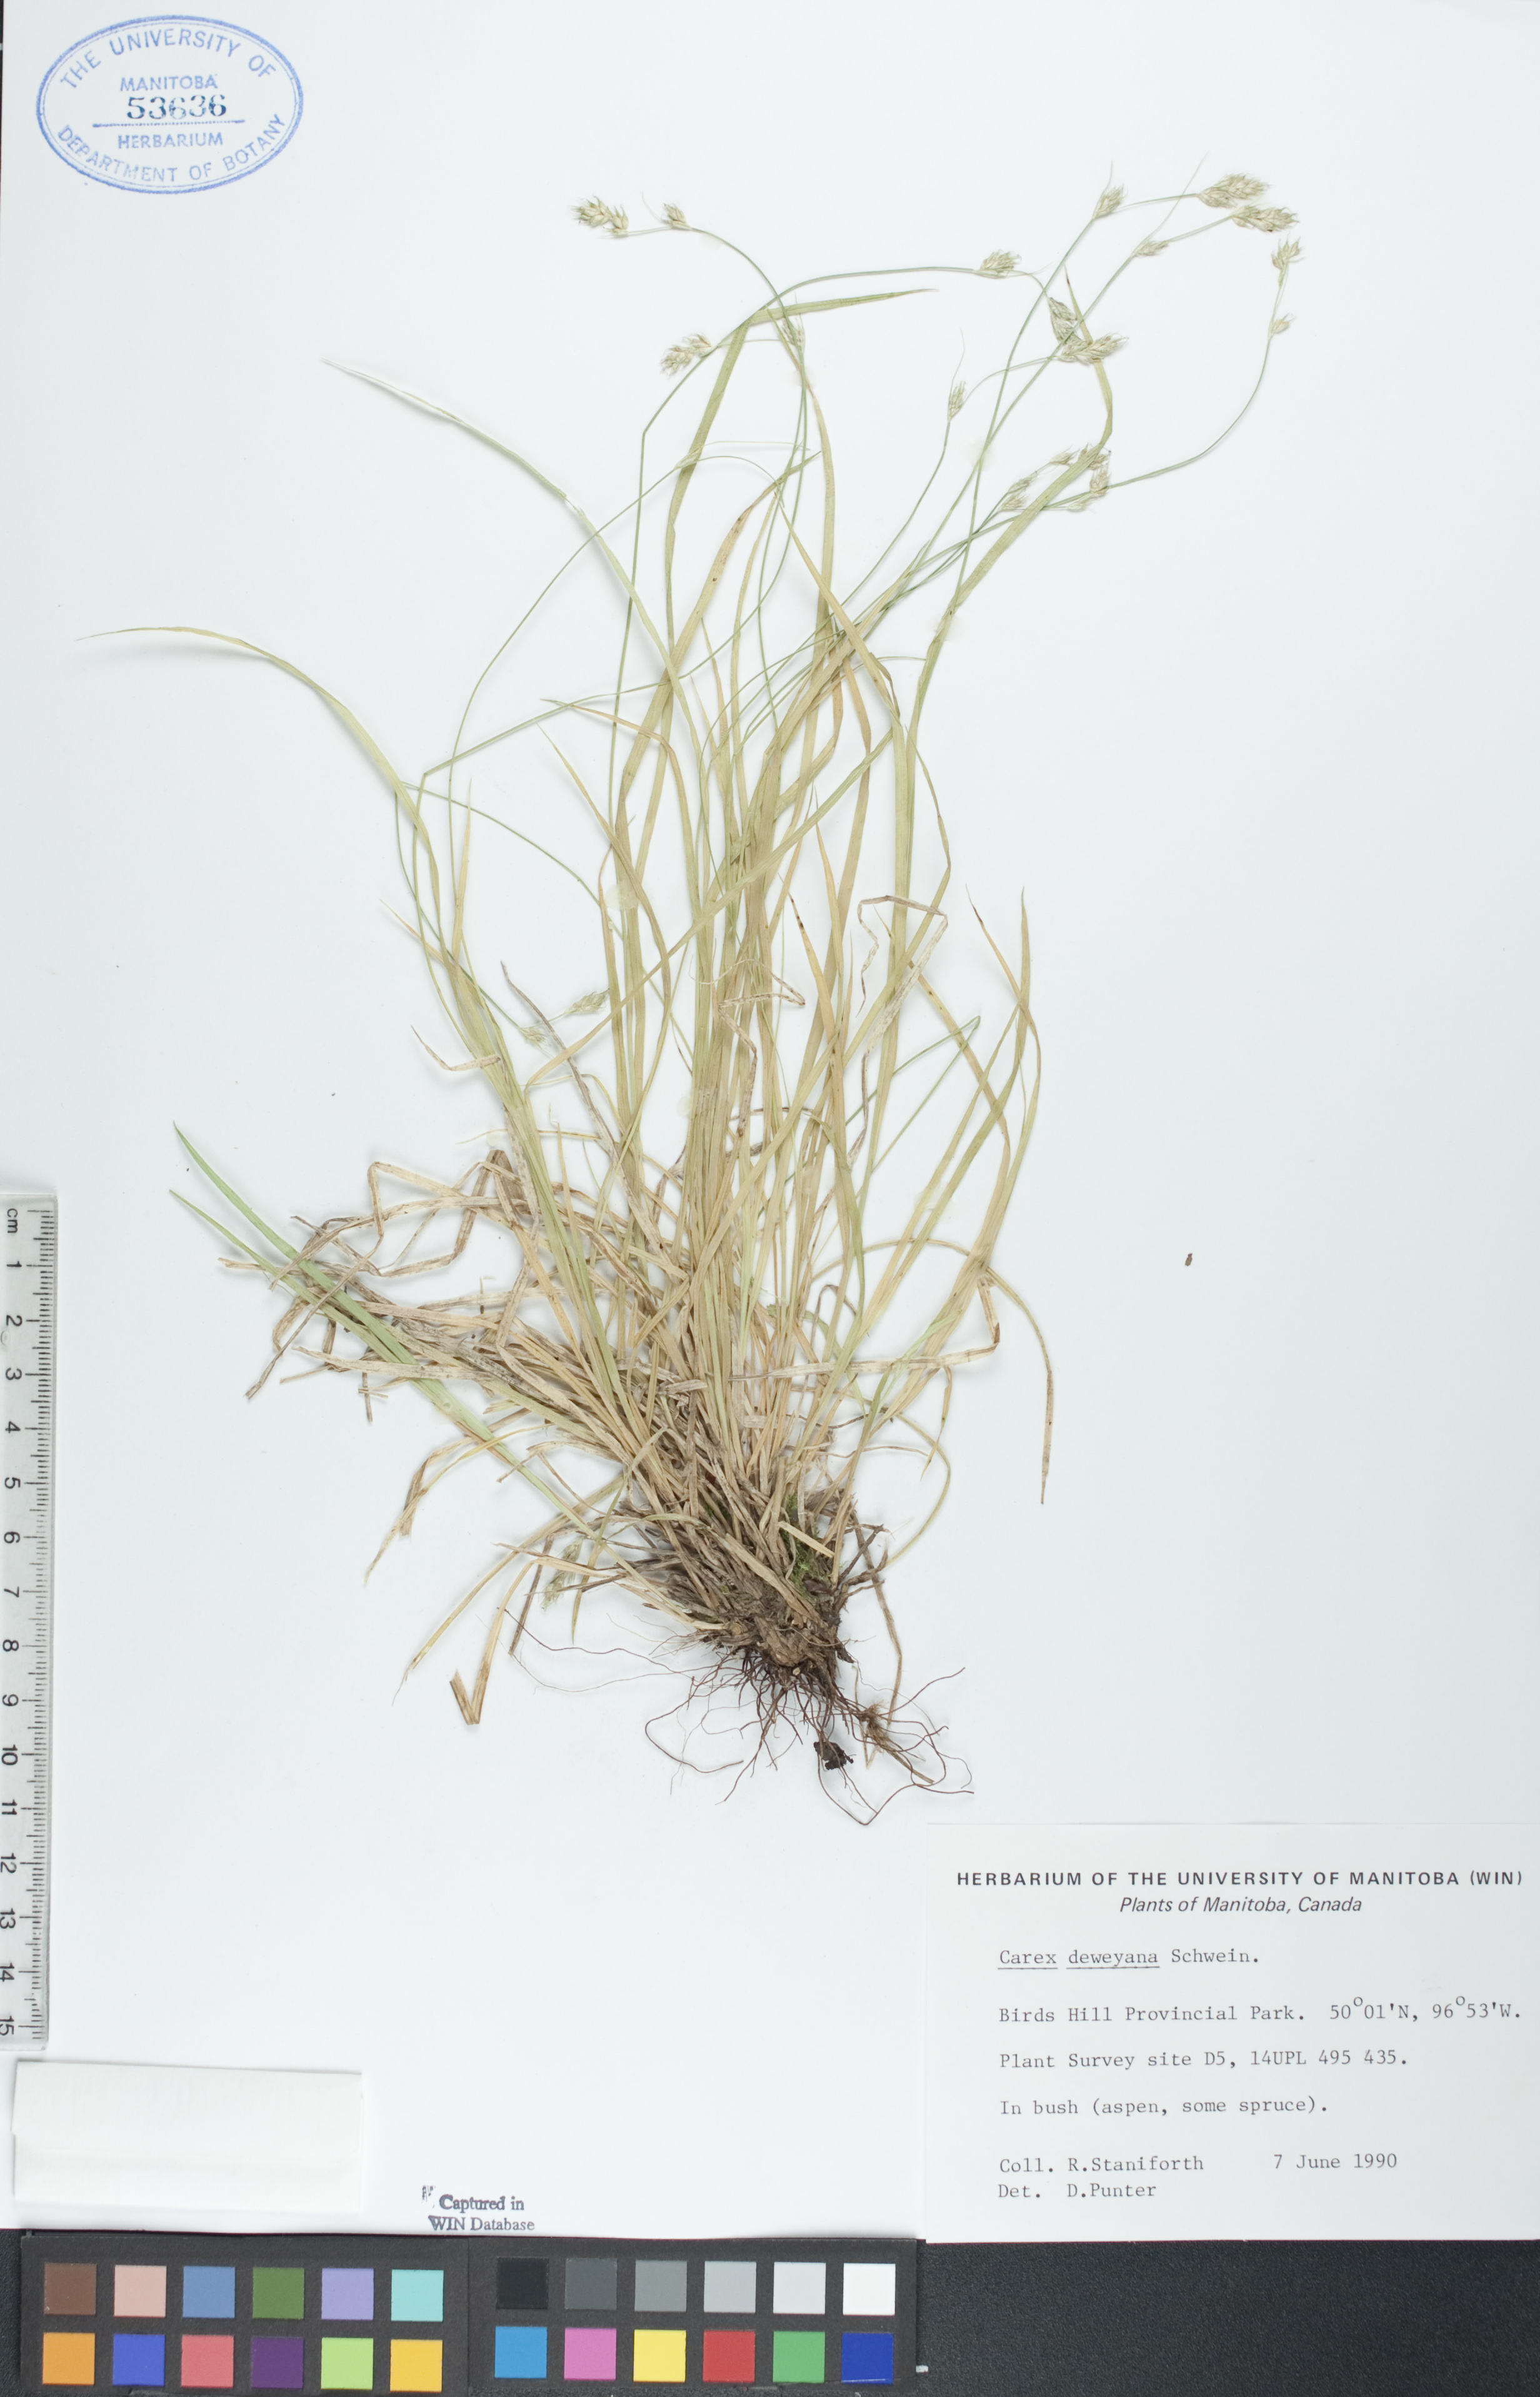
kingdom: Plantae
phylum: Tracheophyta
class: Liliopsida
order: Poales
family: Cyperaceae
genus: Carex
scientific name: Carex deweyana
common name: Dewey's sedge
